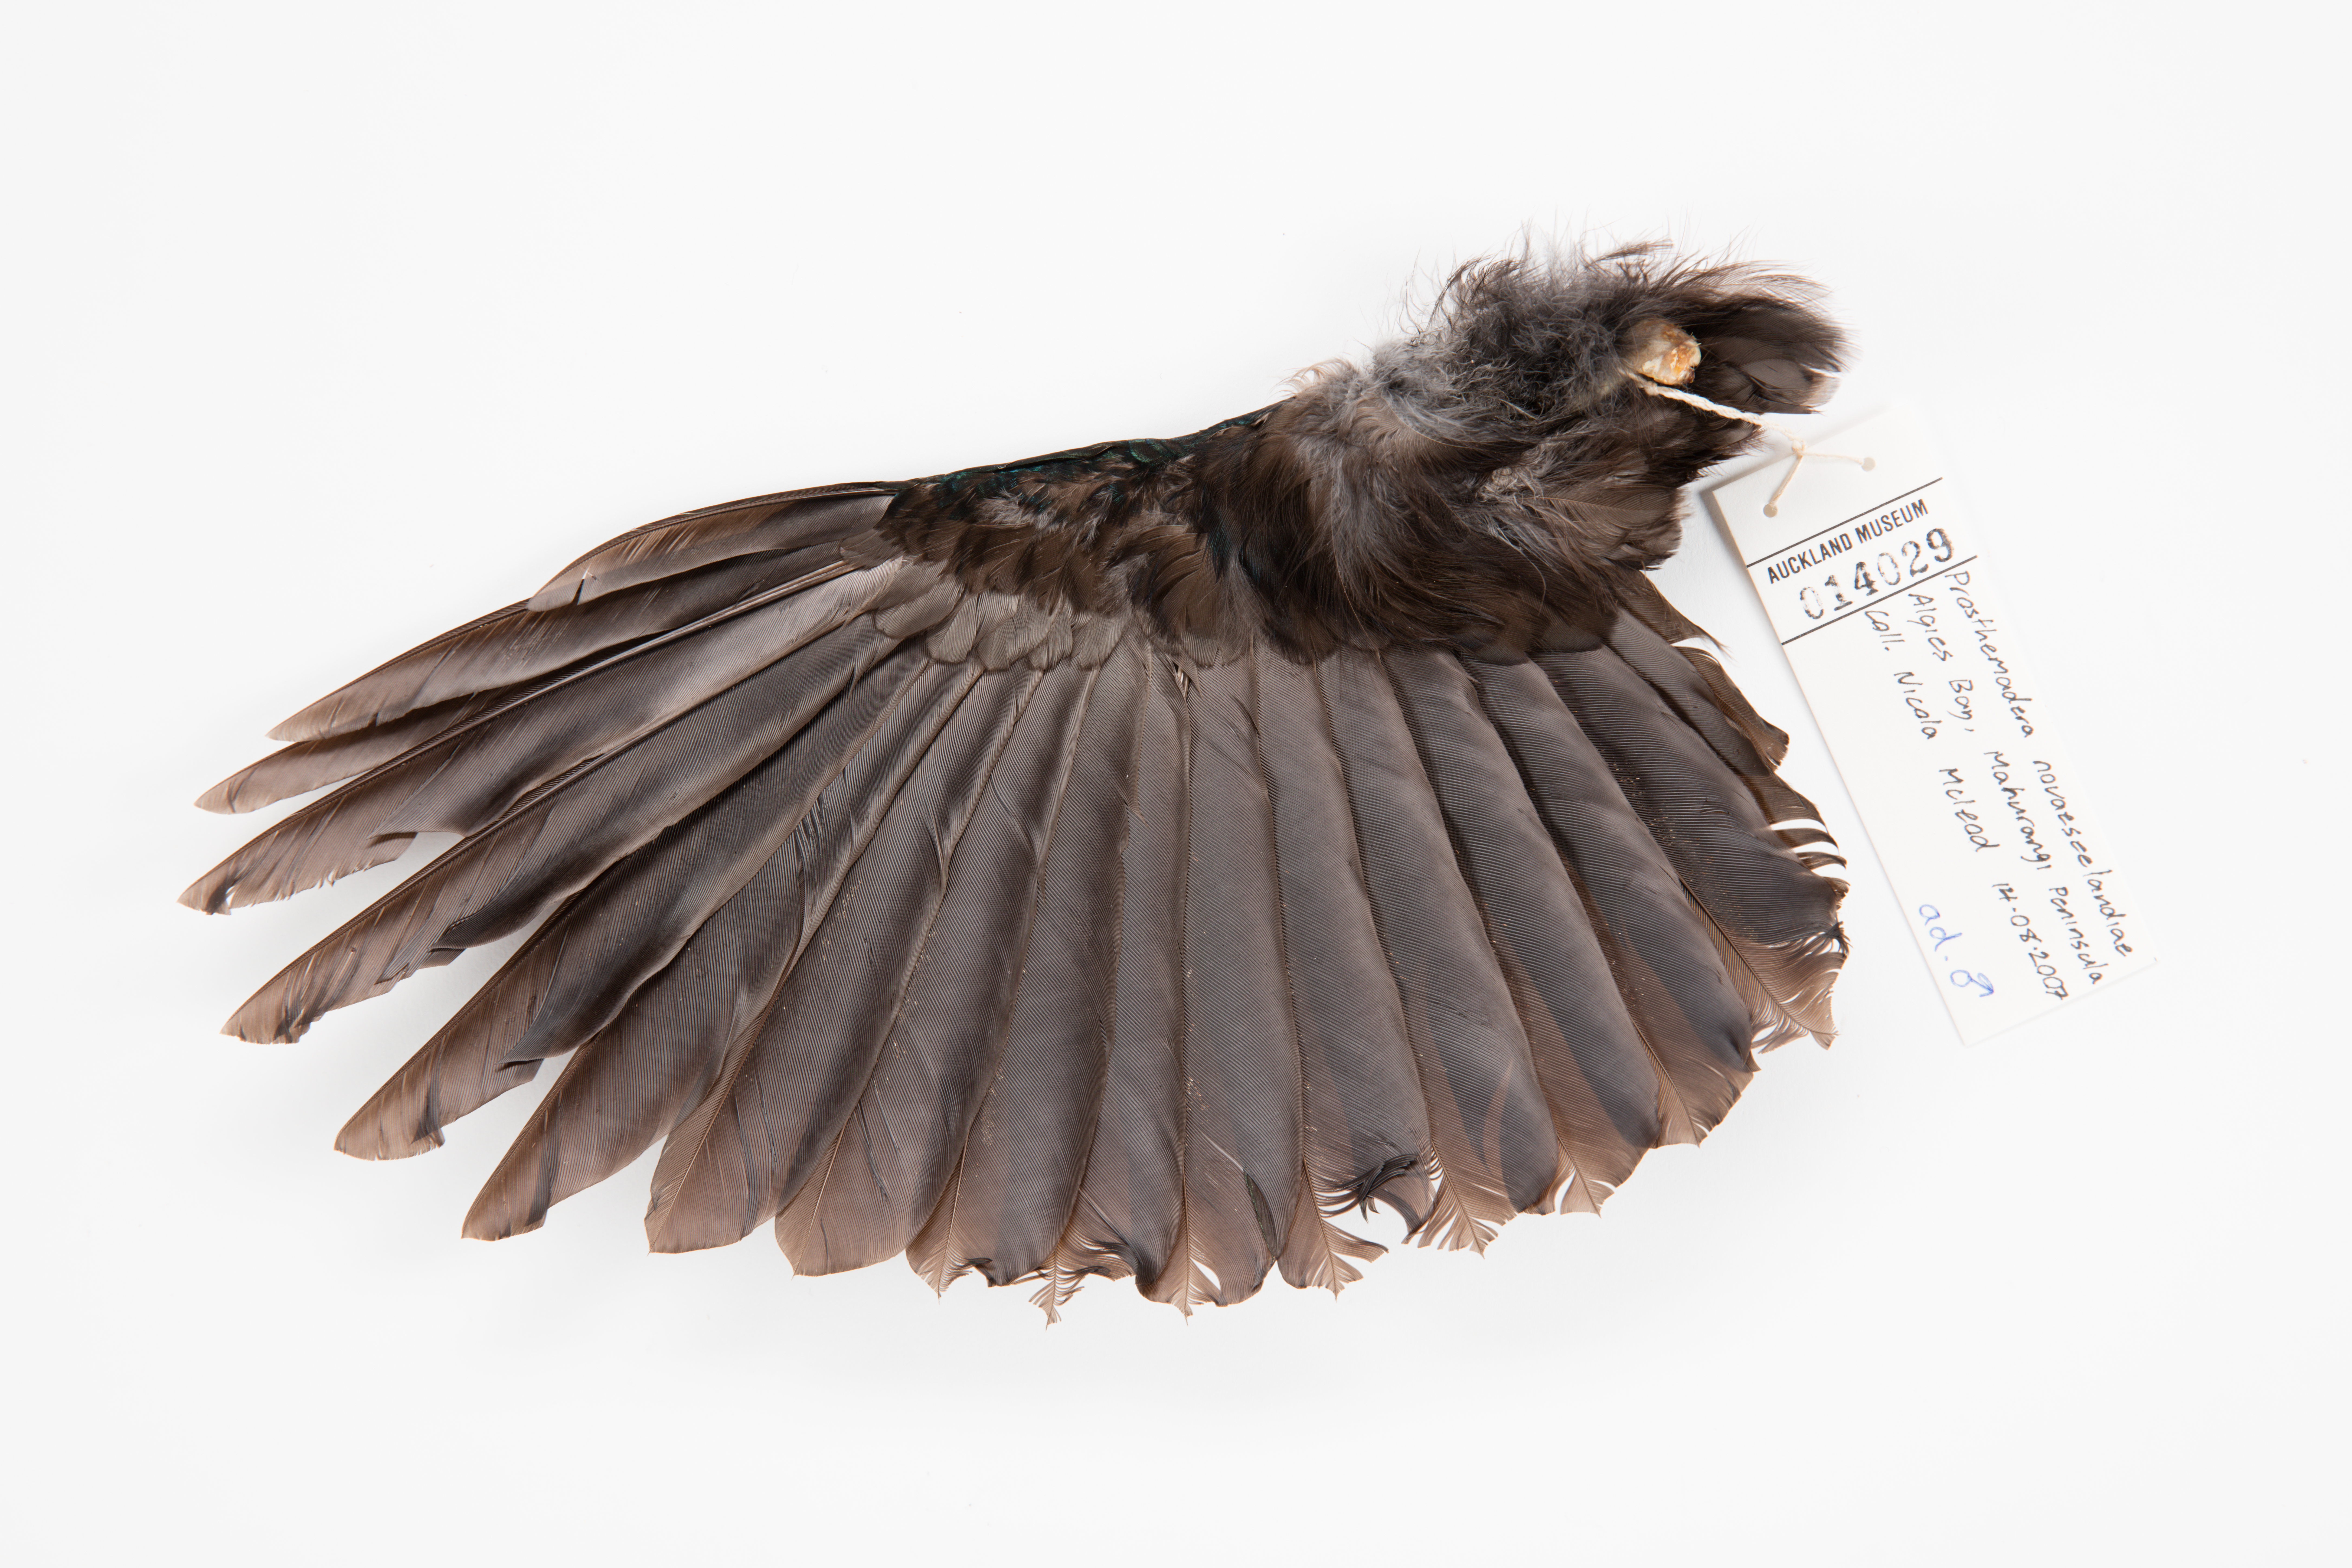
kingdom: Animalia
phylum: Chordata
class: Aves
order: Passeriformes
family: Meliphagidae
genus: Prosthemadera
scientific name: Prosthemadera novaeseelandiae
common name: Tui
